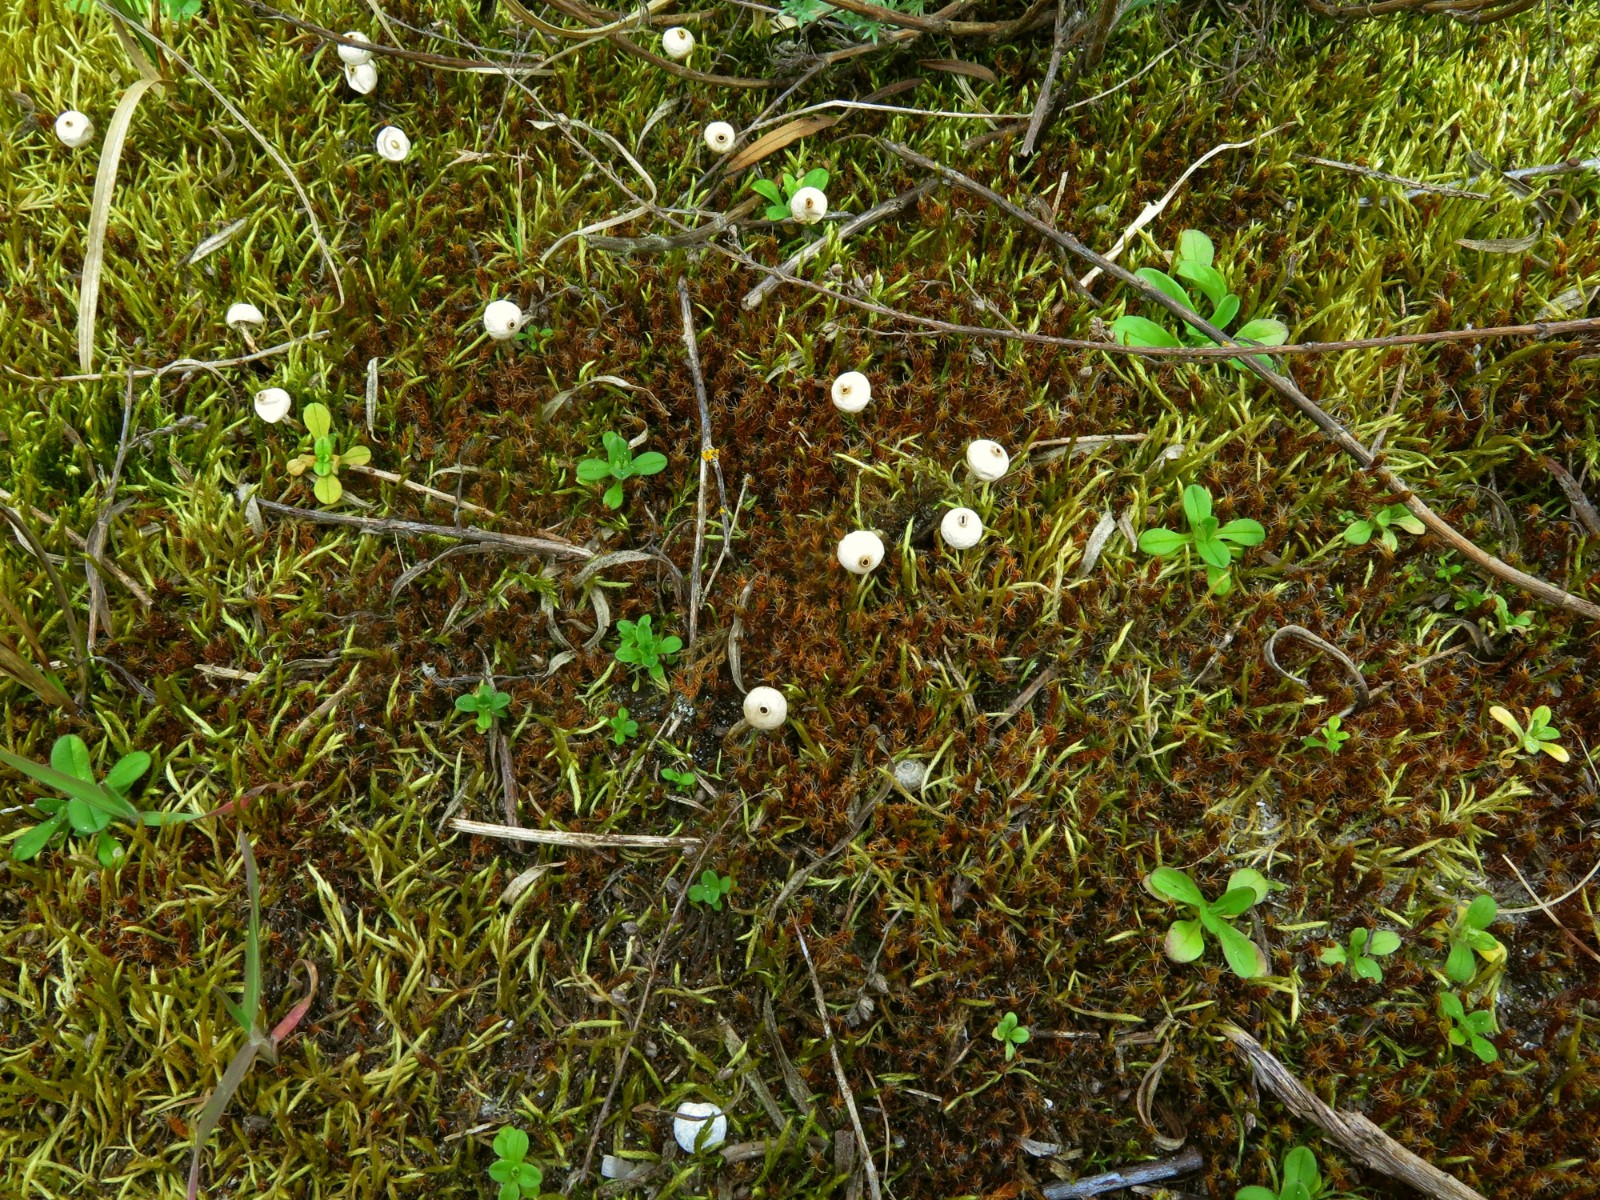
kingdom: Fungi
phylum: Basidiomycota
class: Agaricomycetes
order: Agaricales
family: Agaricaceae
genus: Tulostoma
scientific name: Tulostoma brumale
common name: vinter-stilkbovist
